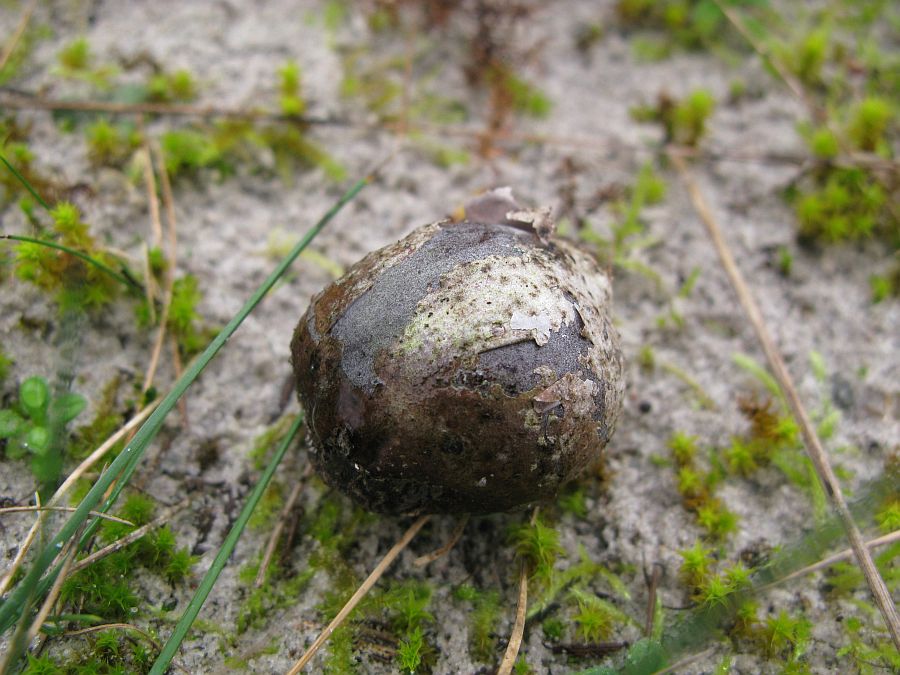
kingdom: Fungi
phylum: Basidiomycota
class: Agaricomycetes
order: Agaricales
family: Lycoperdaceae
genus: Bovista
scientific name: Bovista plumbea
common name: blygrå bovist
